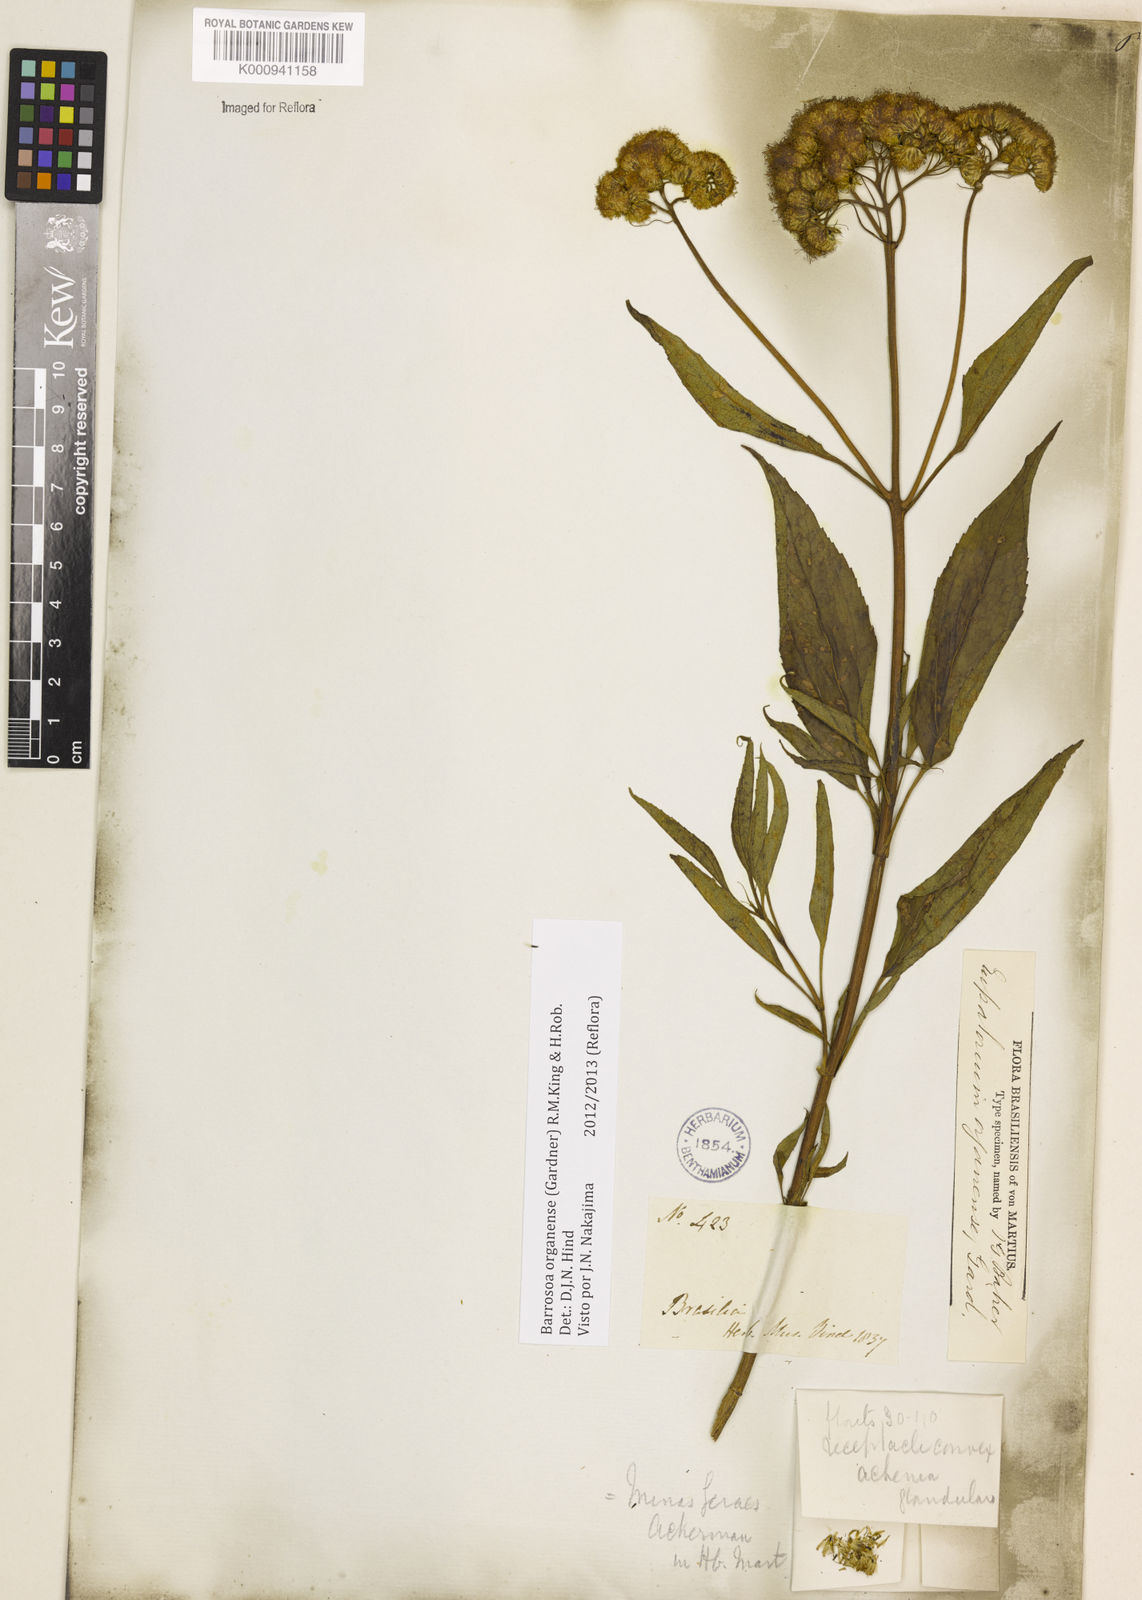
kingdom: Plantae
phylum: Tracheophyta
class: Magnoliopsida
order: Asterales
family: Asteraceae
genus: Barrosoa
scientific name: Barrosoa
